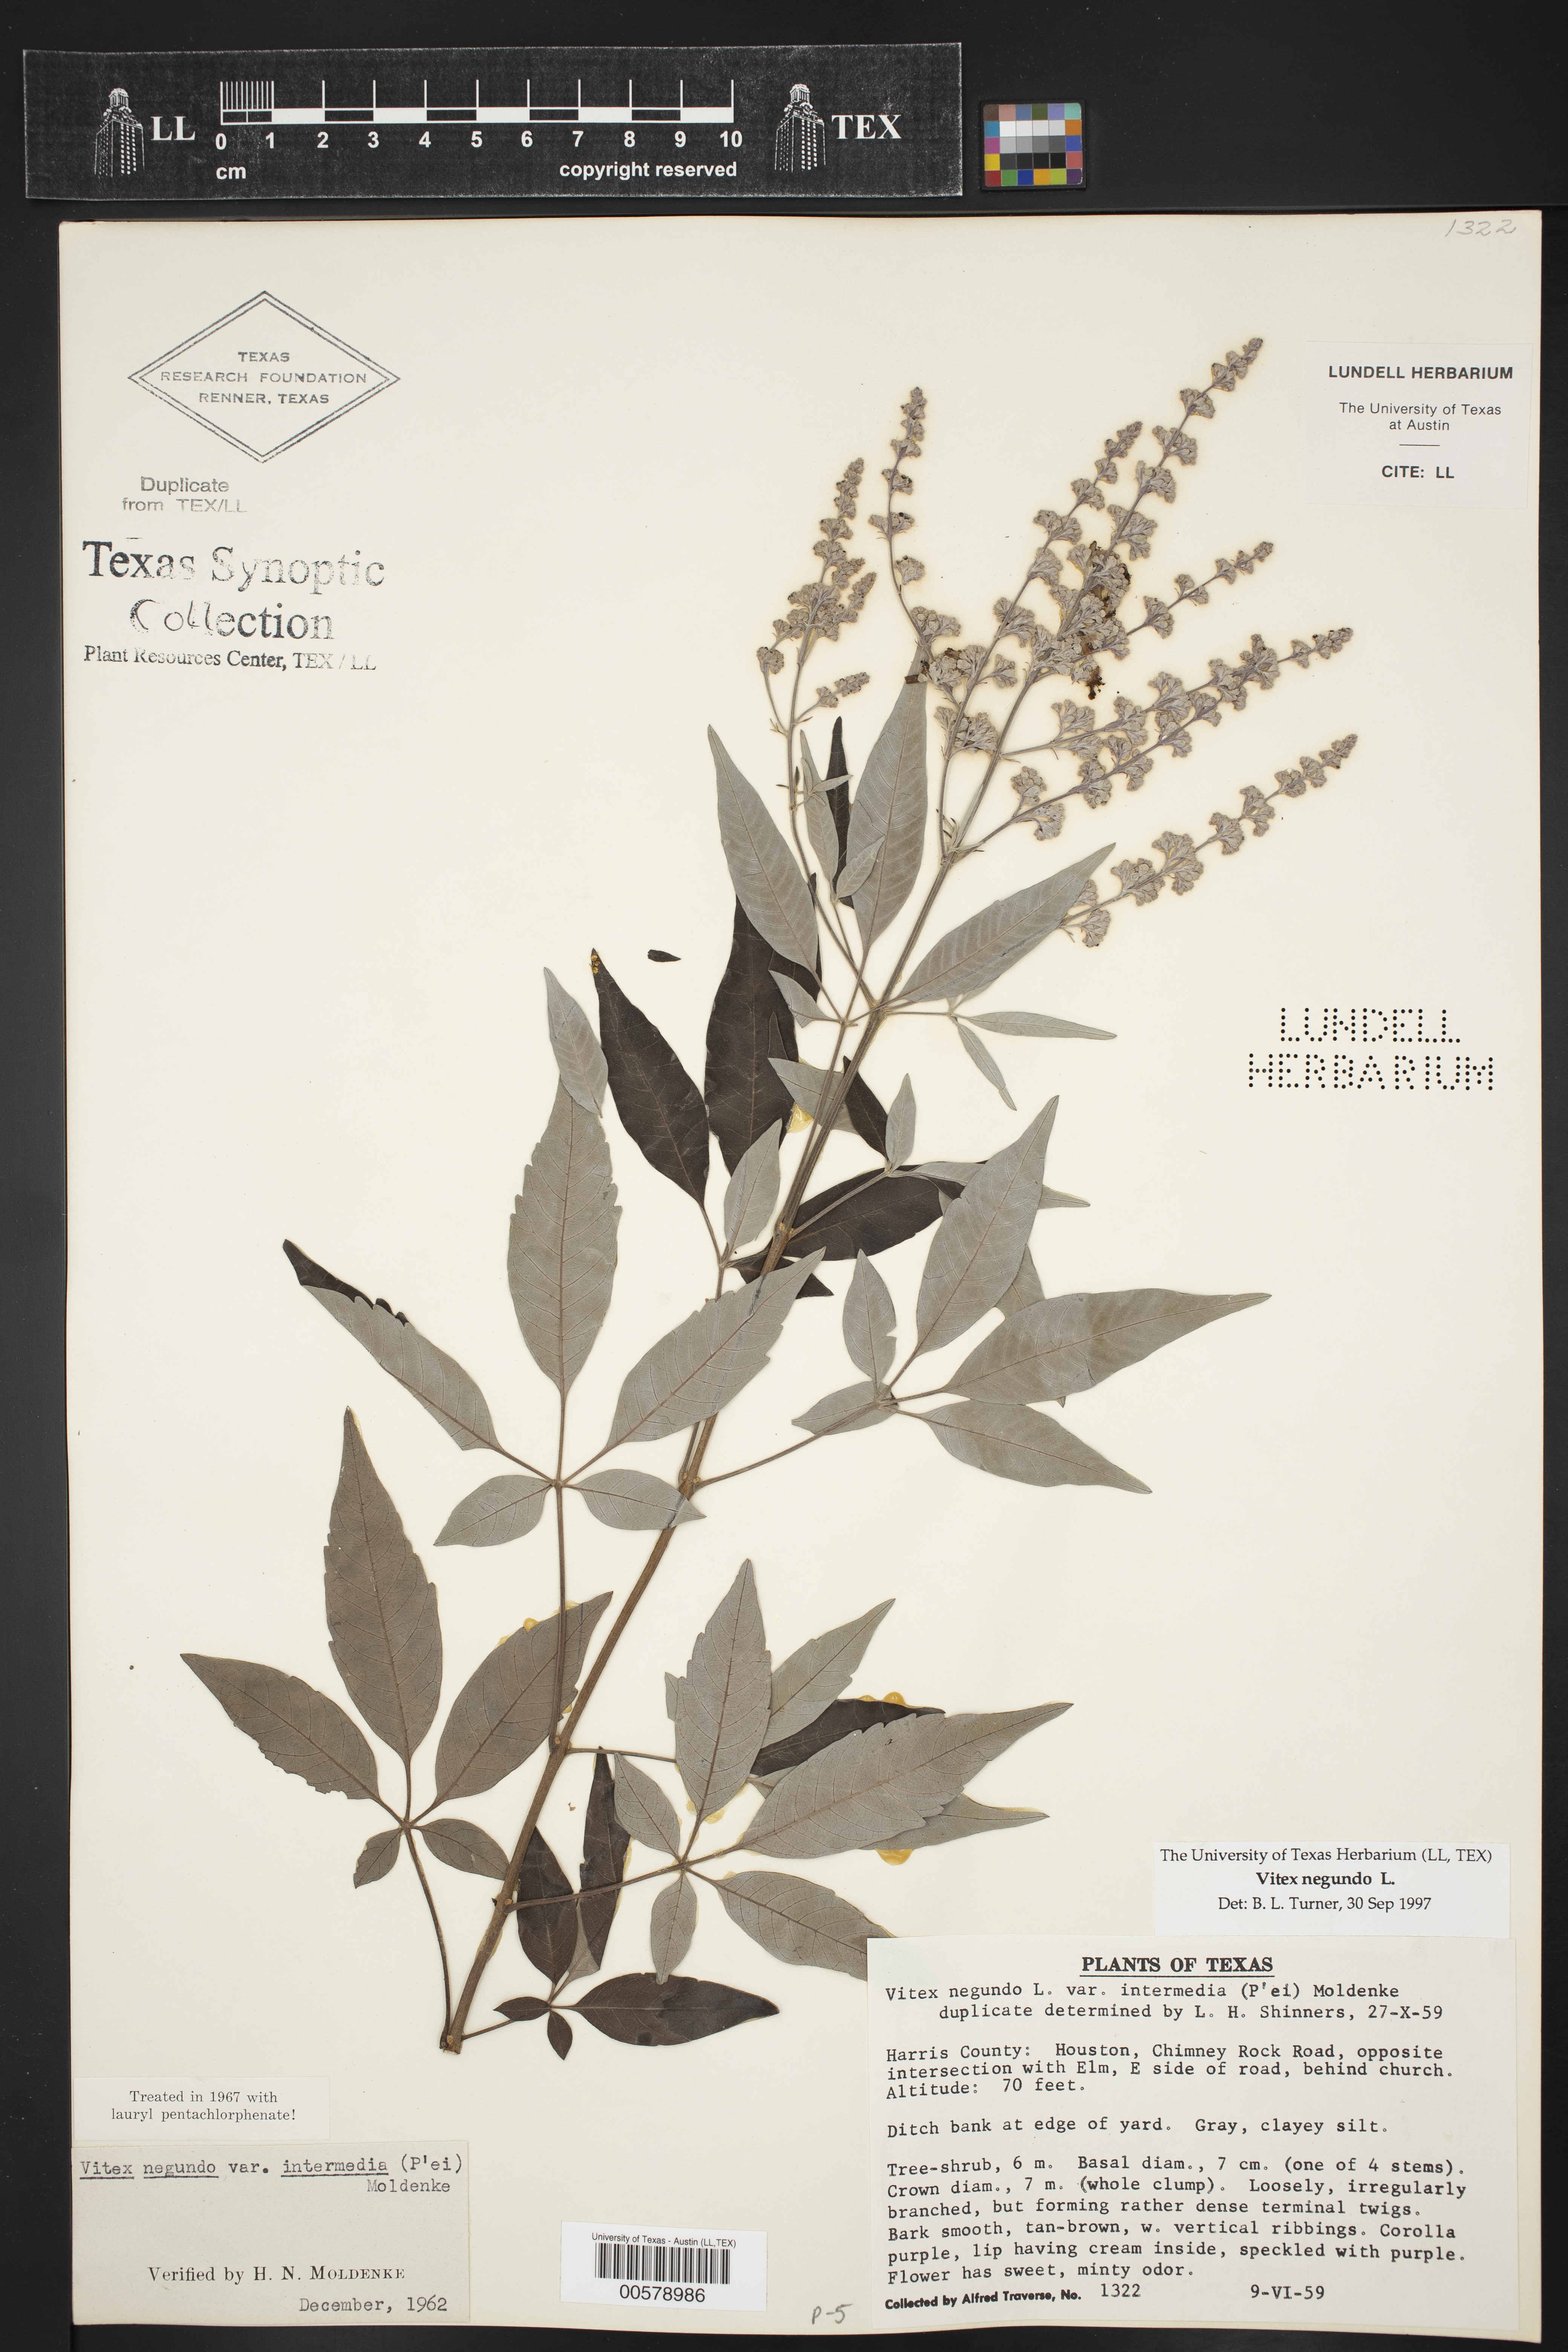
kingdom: Plantae
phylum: Tracheophyta
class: Magnoliopsida
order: Lamiales
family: Lamiaceae
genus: Vitex
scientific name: Vitex negundo
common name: Chinese chastetree
